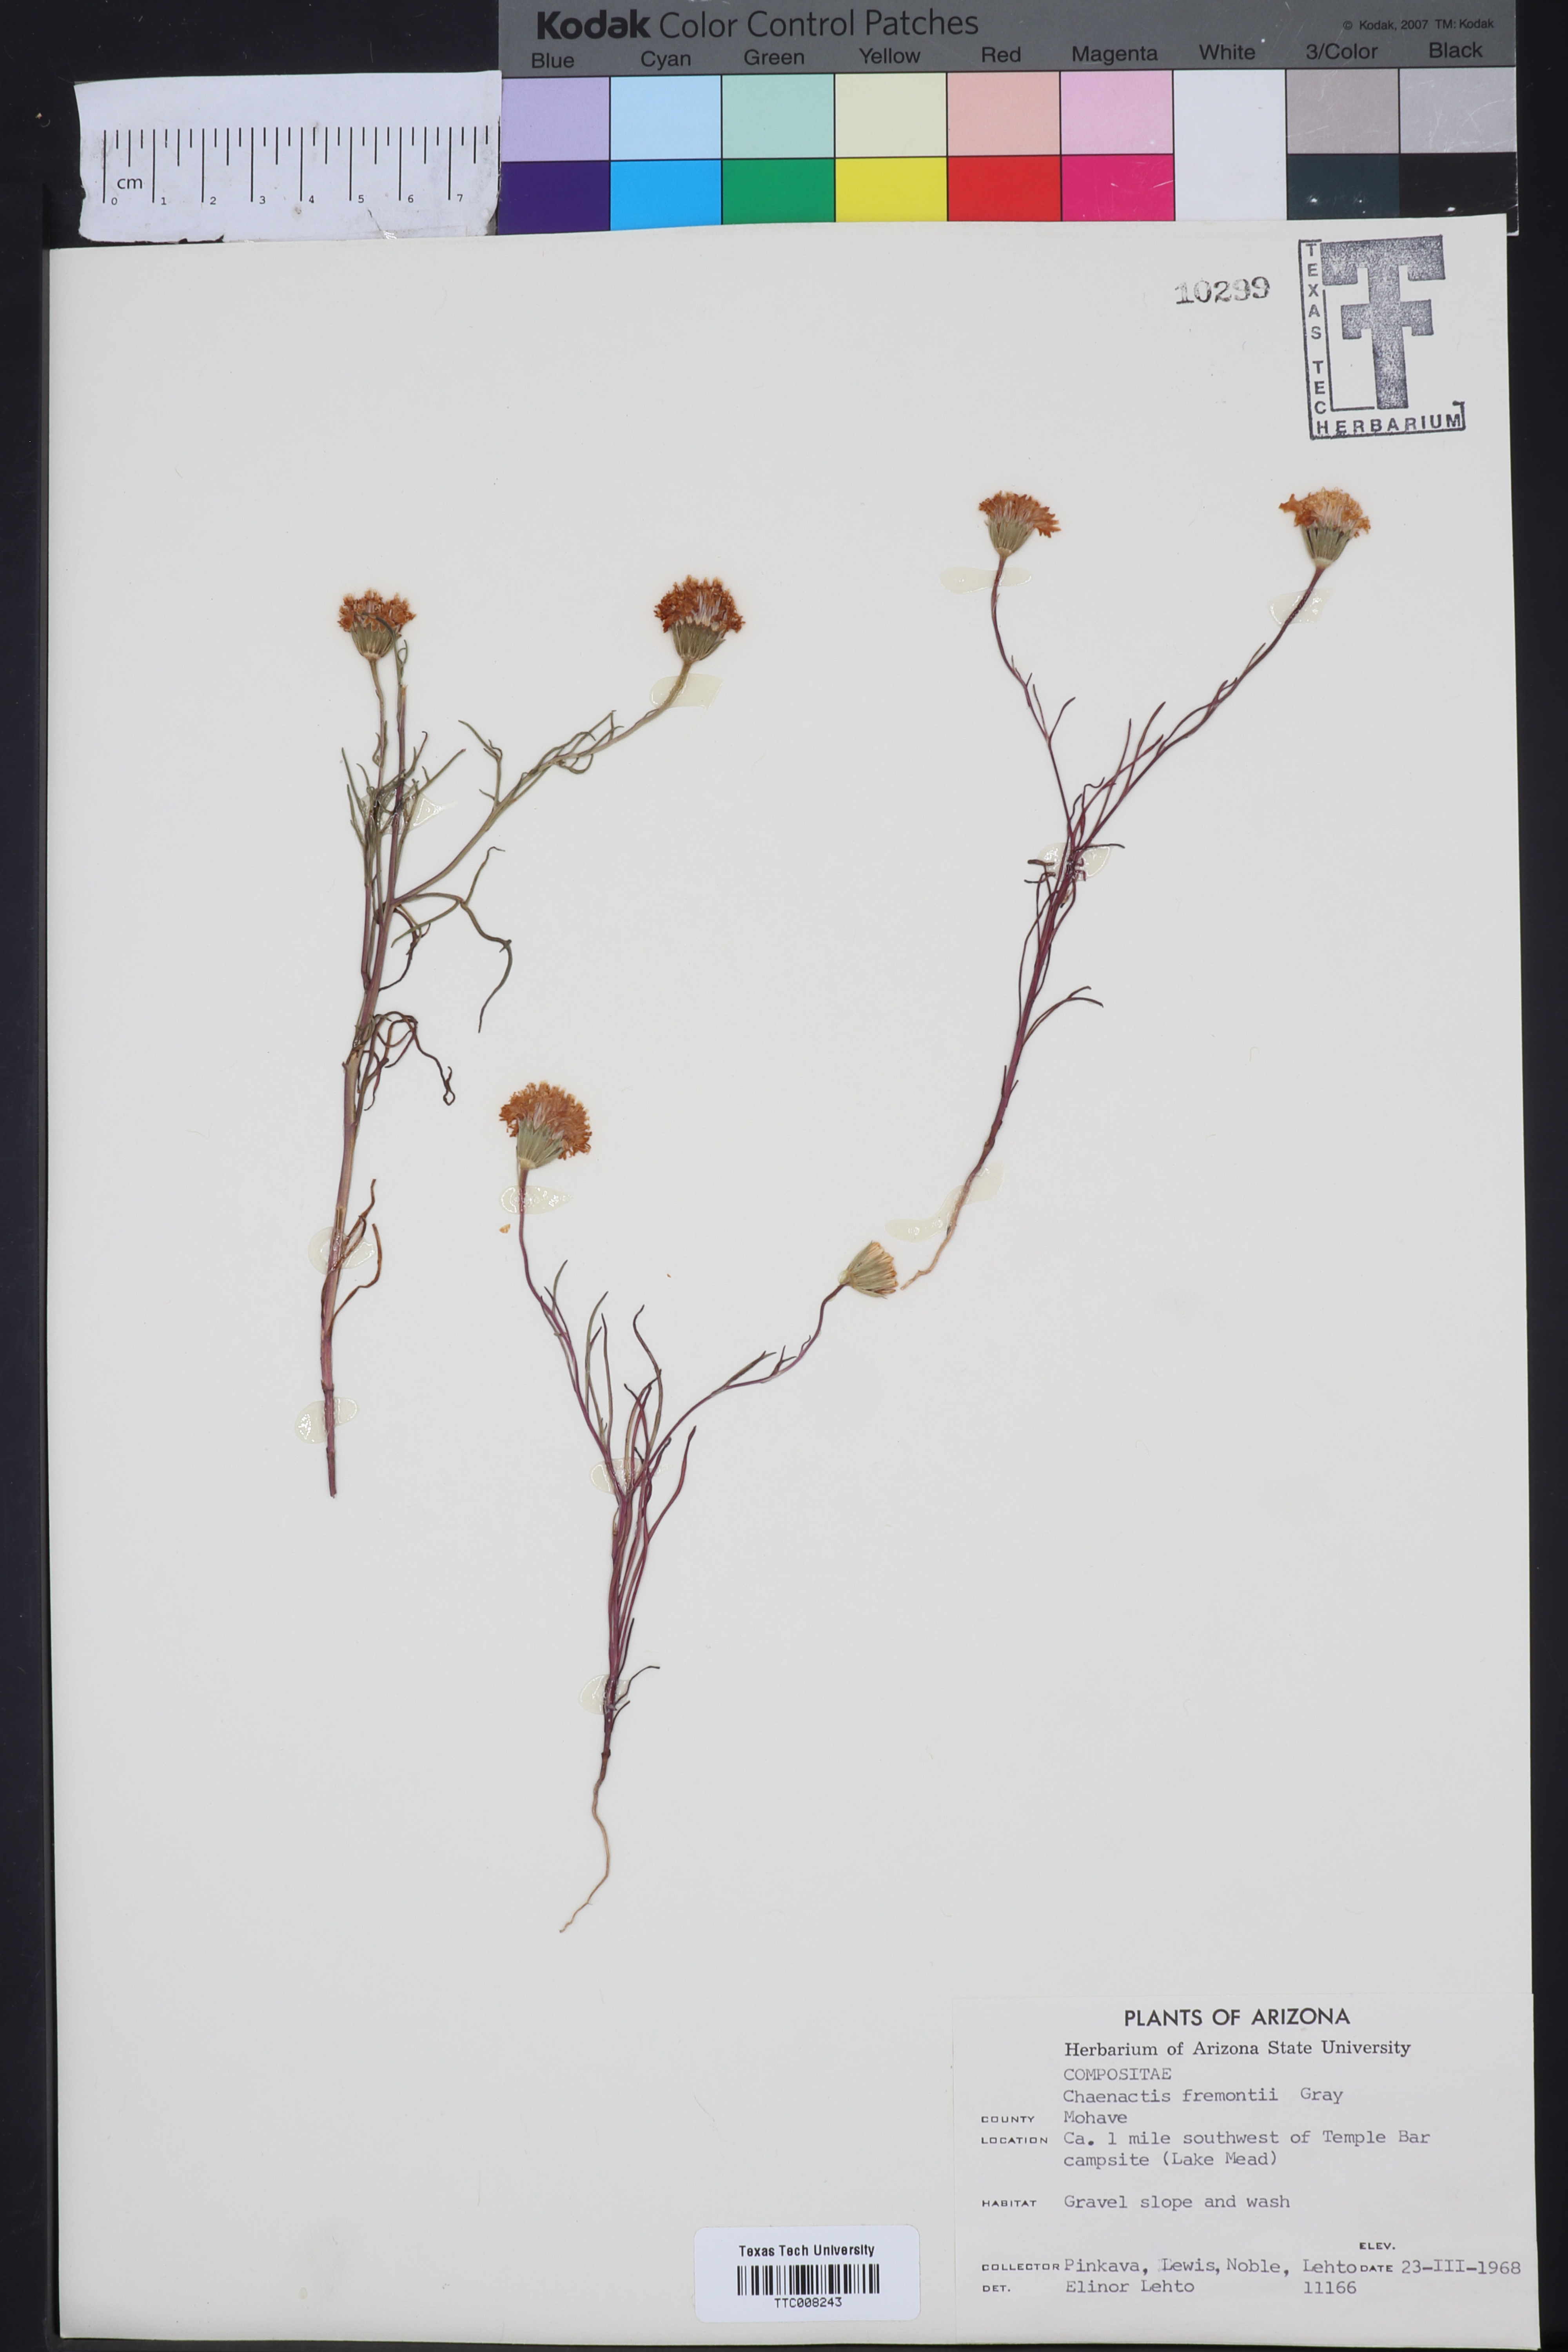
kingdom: Plantae
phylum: Tracheophyta
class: Magnoliopsida
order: Asterales
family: Asteraceae
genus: Chaenactis
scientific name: Chaenactis fremontii
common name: Fremont pincushion
